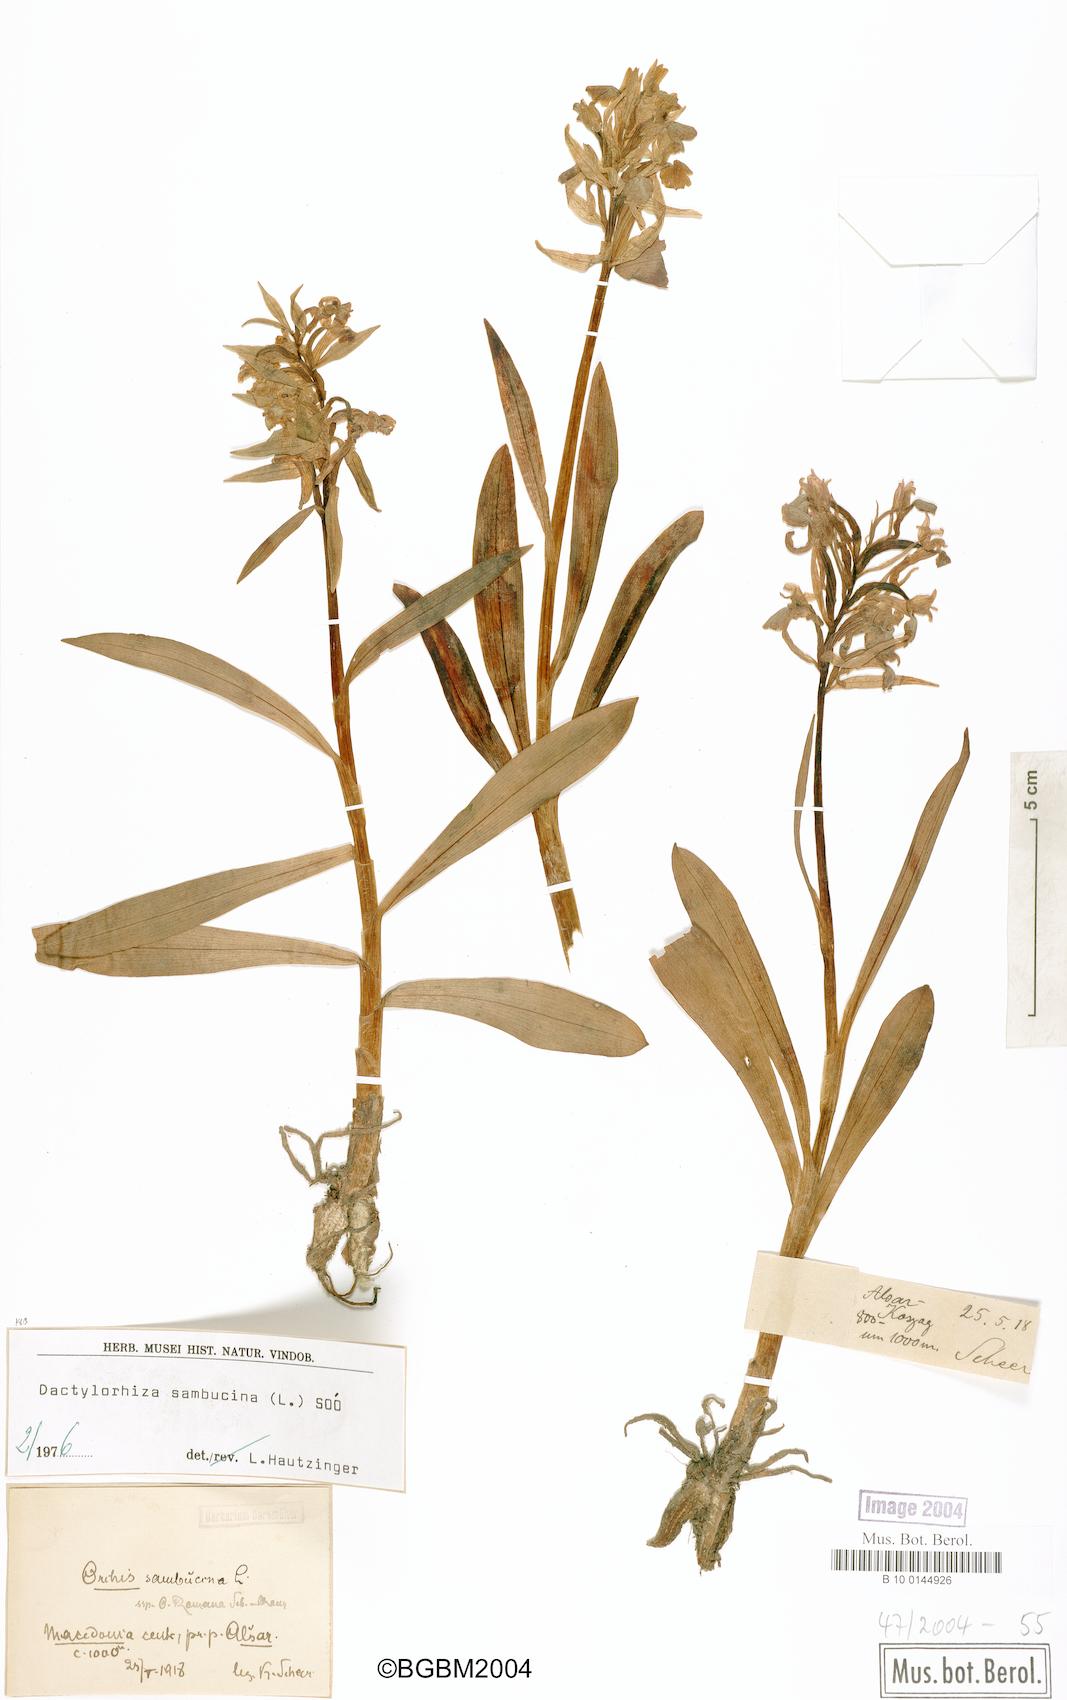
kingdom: Plantae
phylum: Tracheophyta
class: Liliopsida
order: Asparagales
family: Orchidaceae
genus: Dactylorhiza
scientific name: Dactylorhiza sambucina
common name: Elder-flowered orchid
